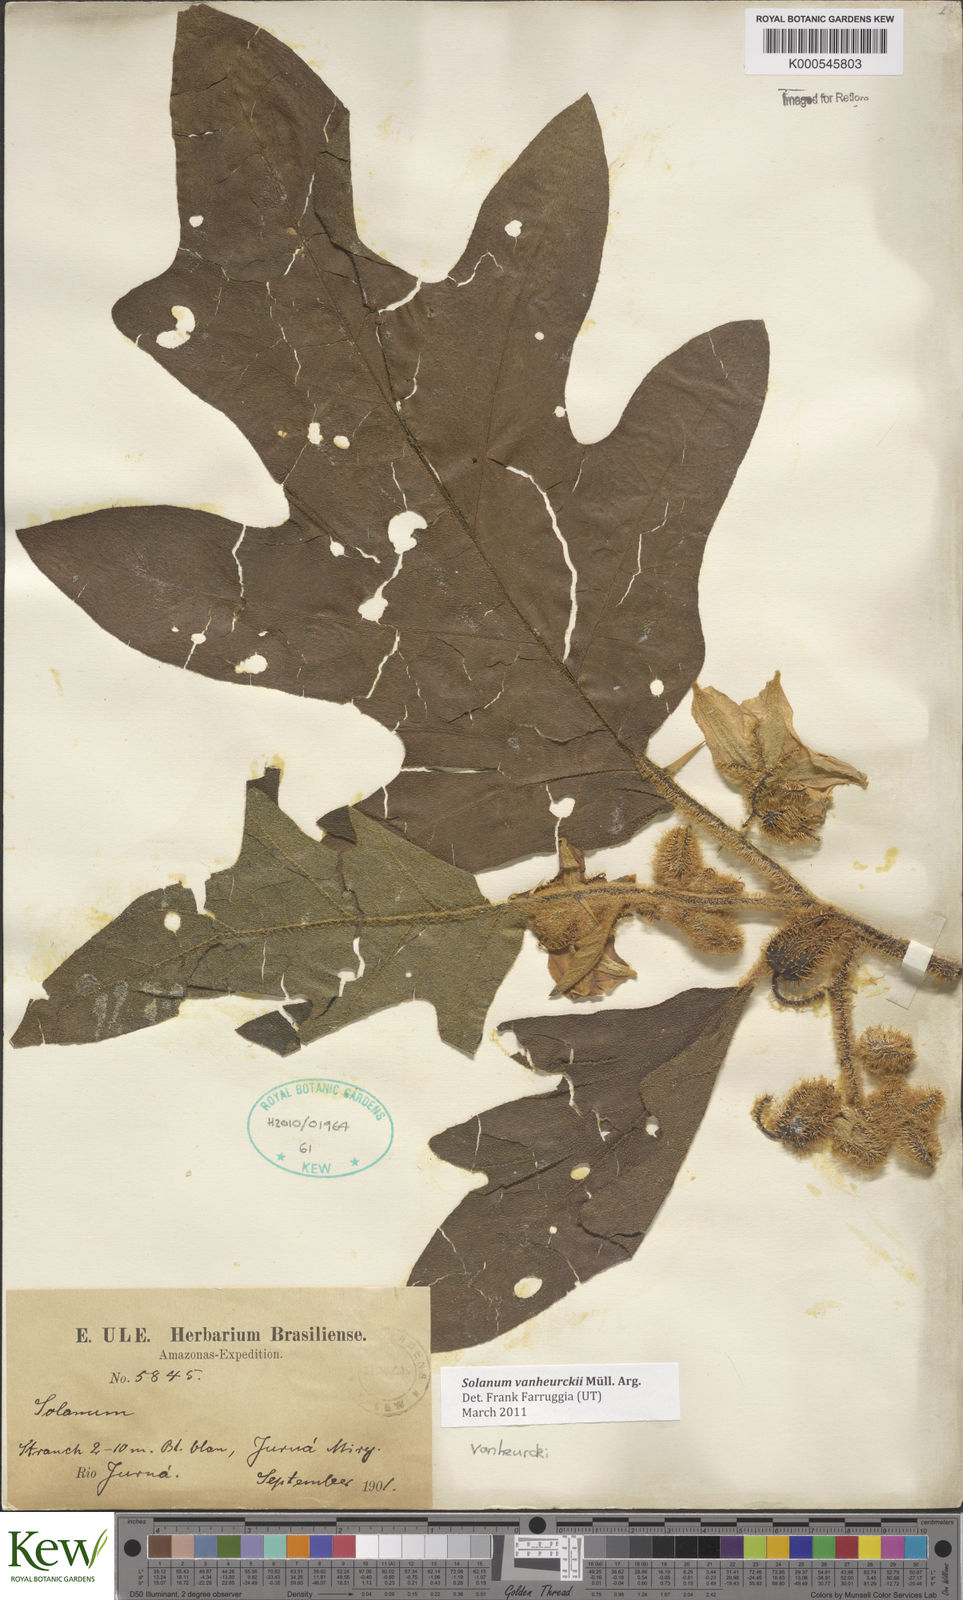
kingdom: Plantae
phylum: Tracheophyta
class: Magnoliopsida
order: Solanales
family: Solanaceae
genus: Solanum
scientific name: Solanum
